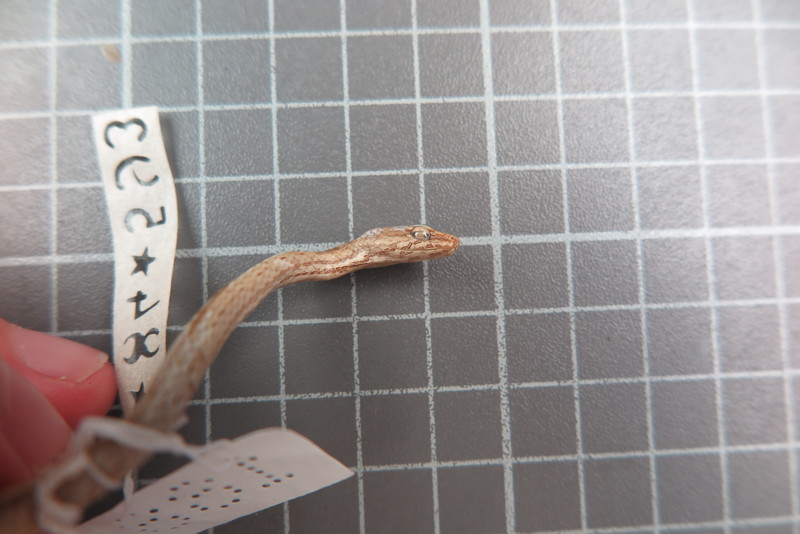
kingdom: Animalia
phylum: Chordata
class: Squamata
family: Psammophiidae
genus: Mimophis
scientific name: Mimophis
